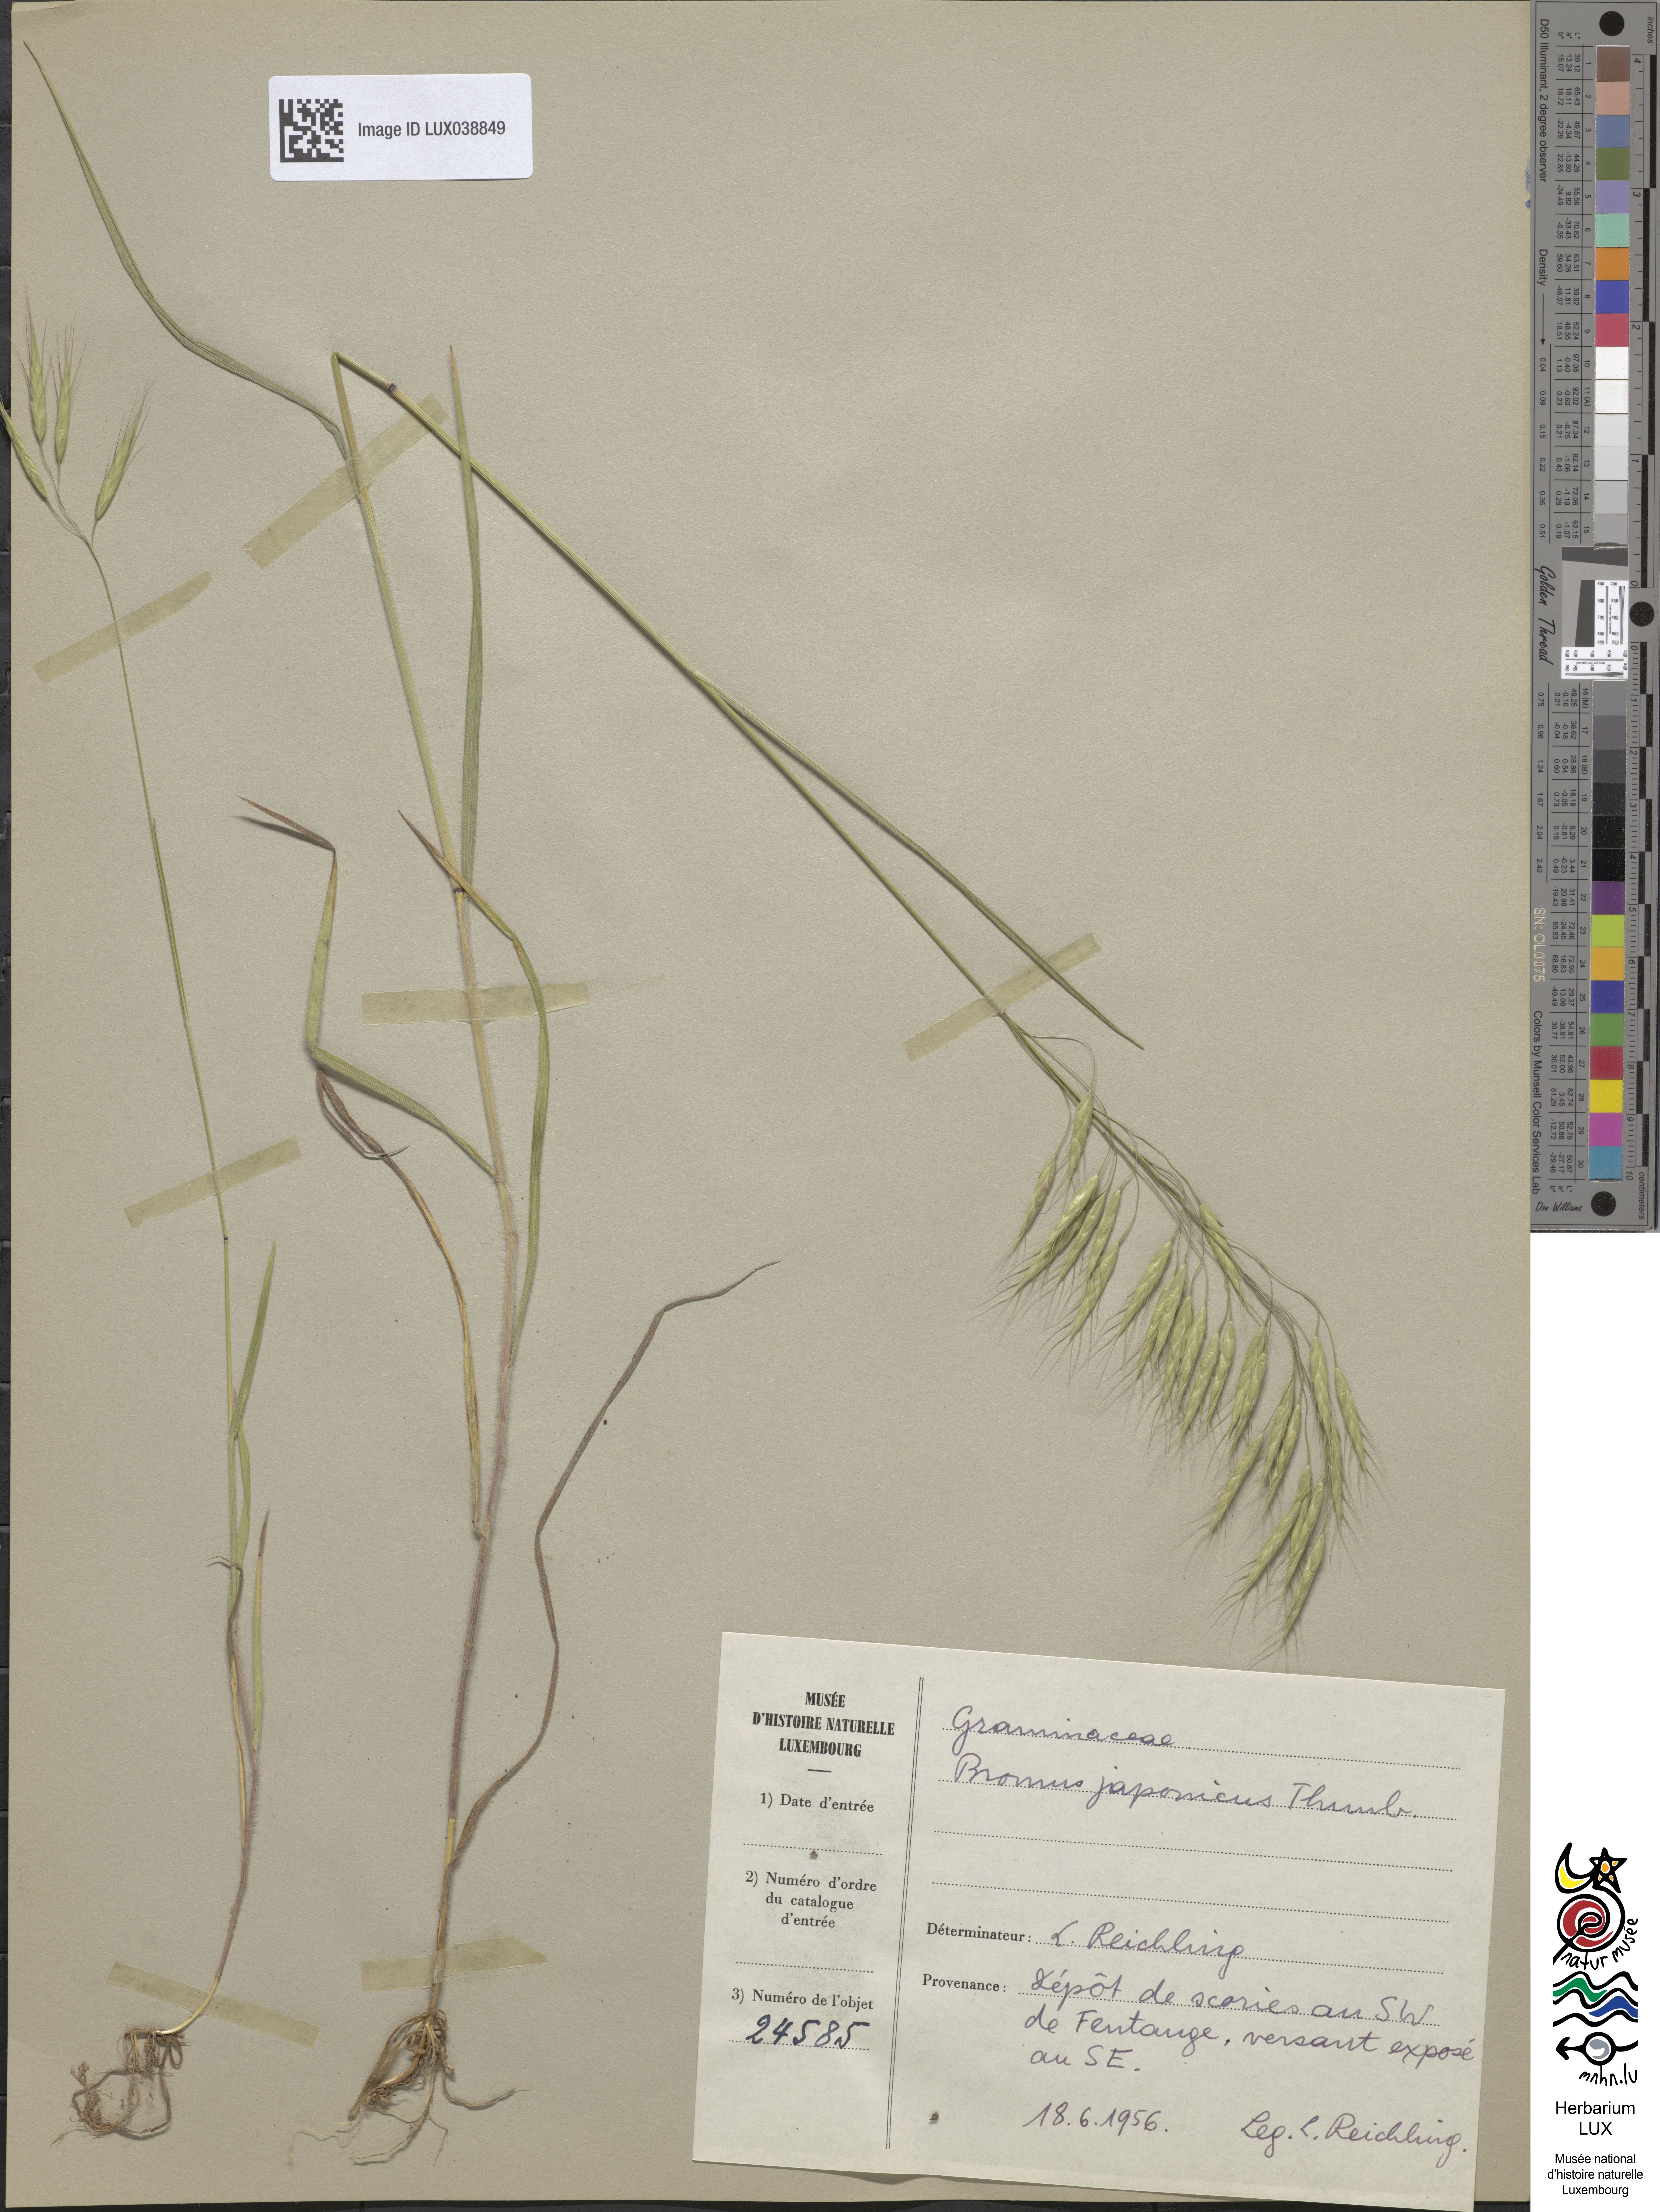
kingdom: Plantae
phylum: Tracheophyta
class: Liliopsida
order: Poales
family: Poaceae
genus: Bromus
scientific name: Bromus japonicus
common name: Japanese brome
